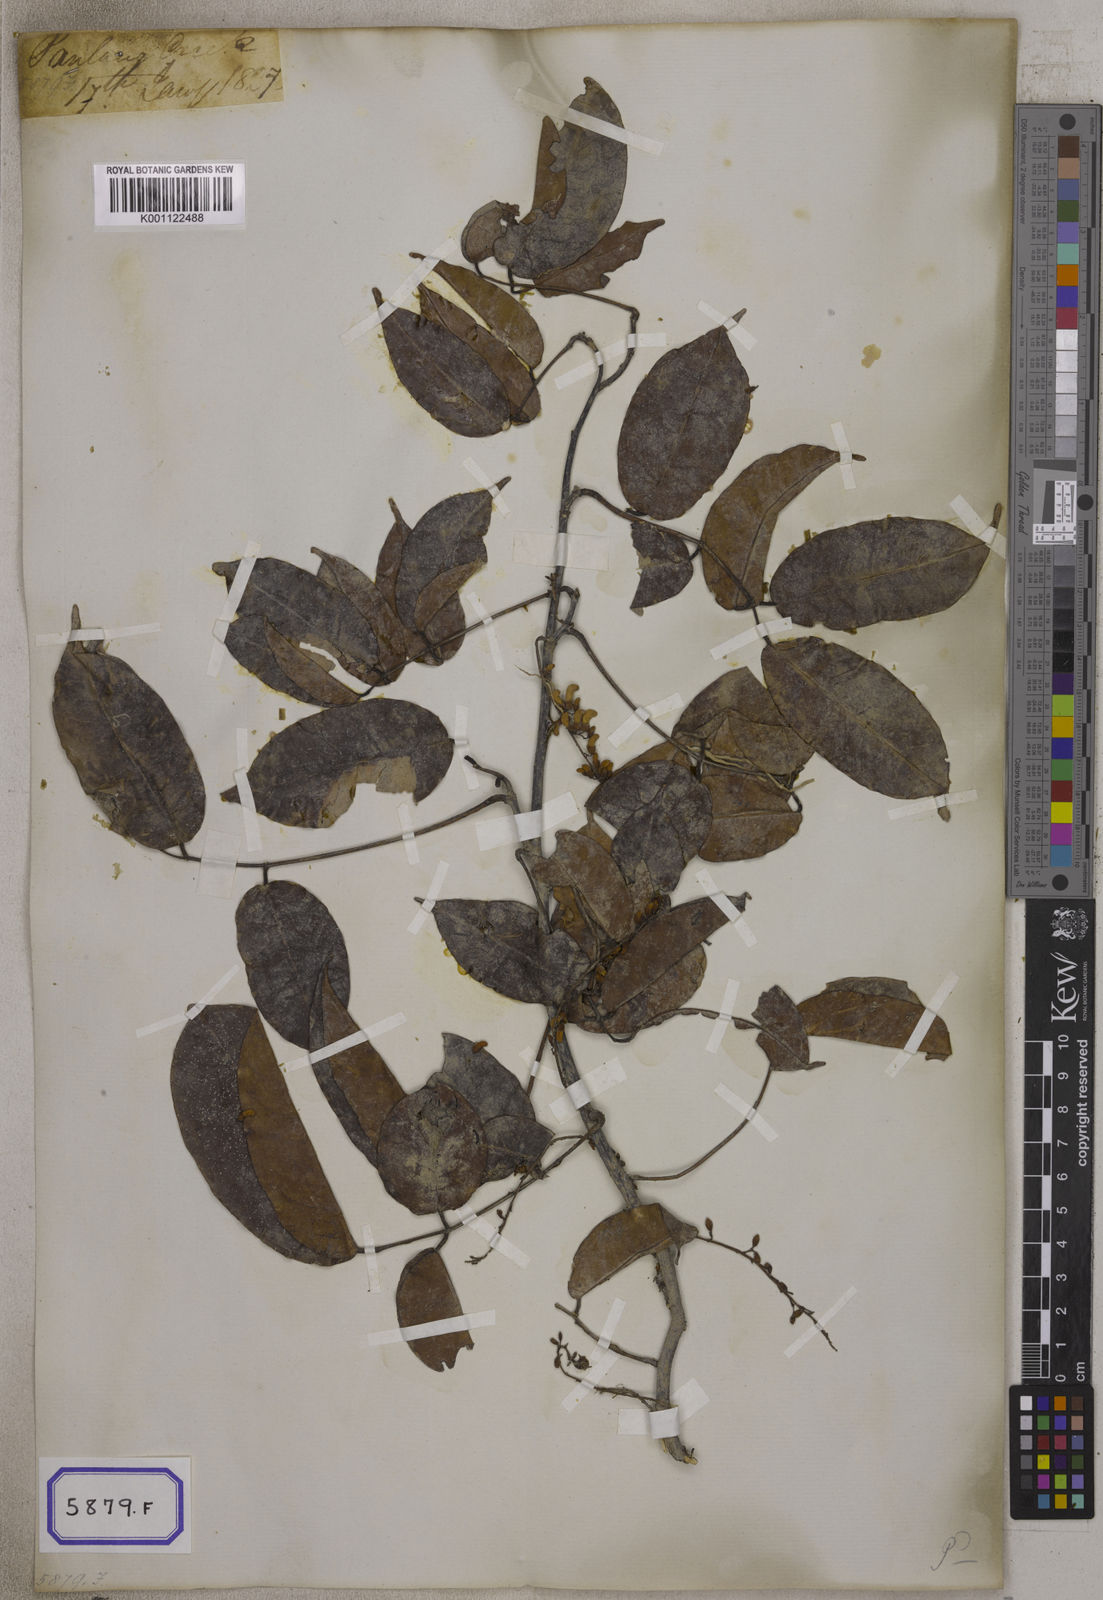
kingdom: Plantae
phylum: Tracheophyta
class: Magnoliopsida
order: Fabales
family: Fabaceae
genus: Derris
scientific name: Derris trifoliata
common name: Three-leaf derris
